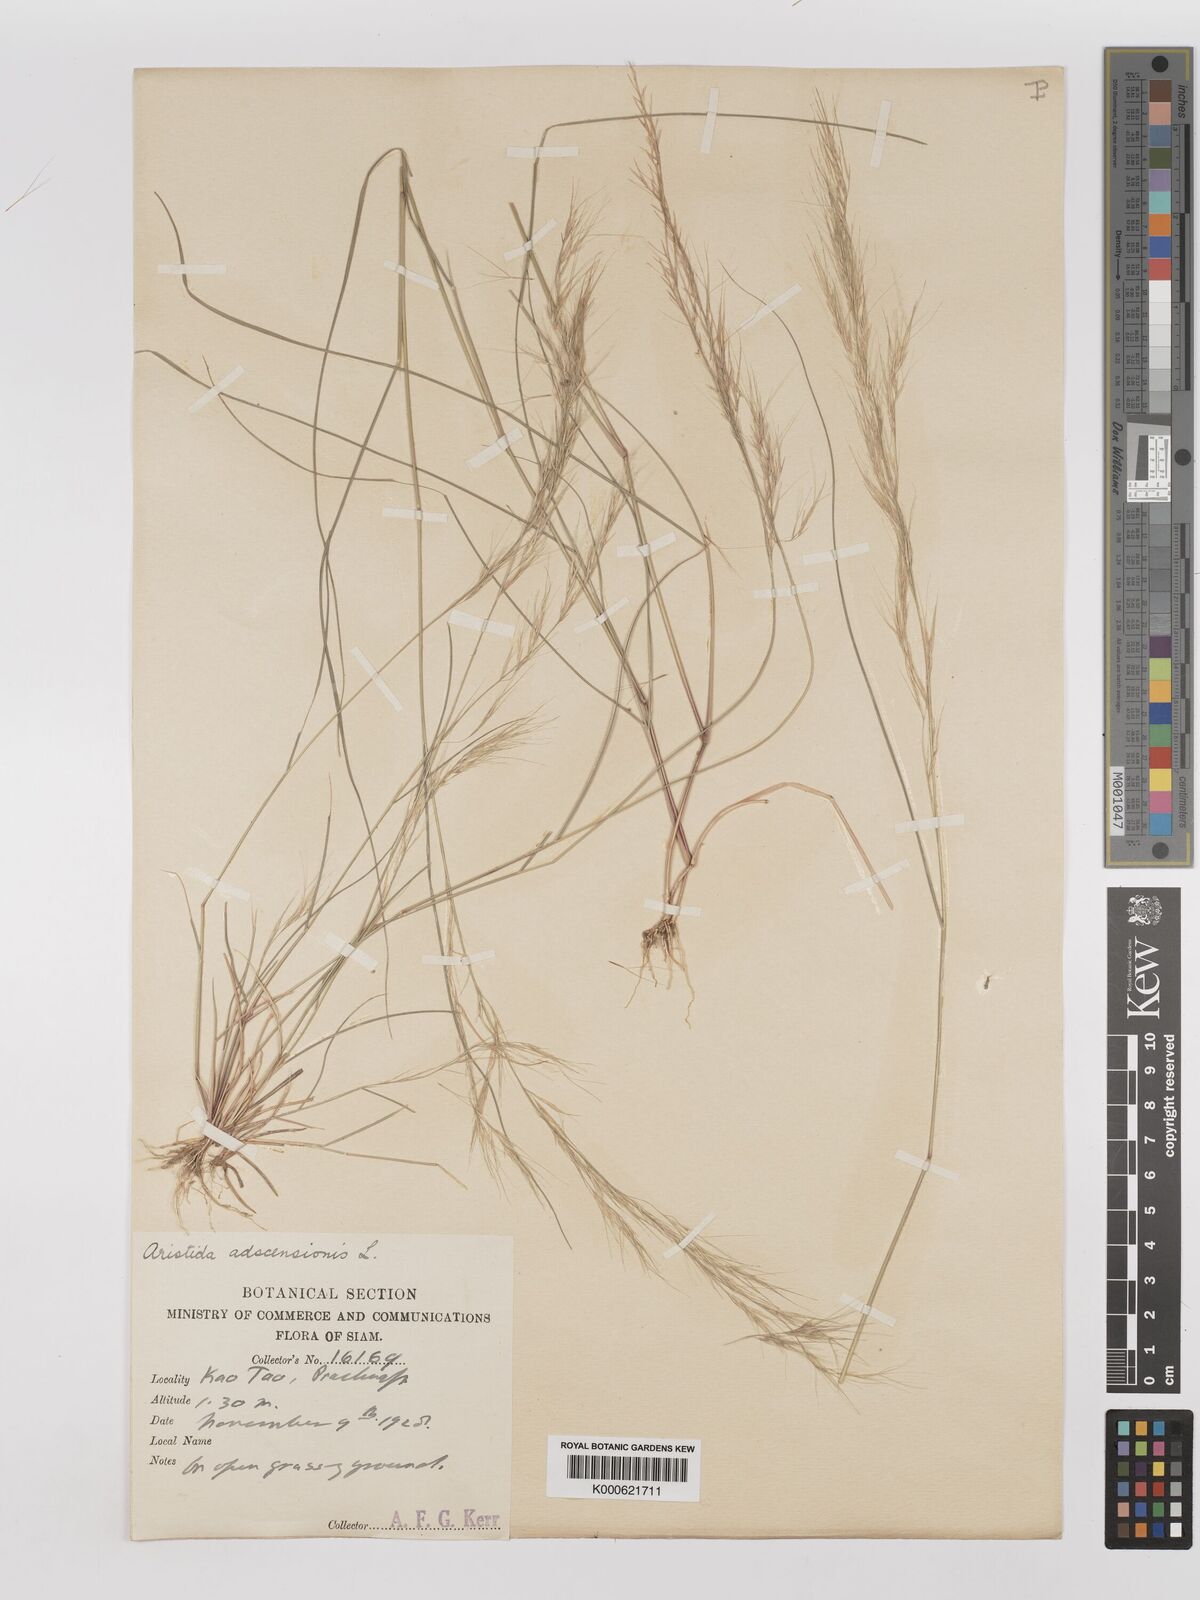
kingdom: Plantae
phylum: Tracheophyta
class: Liliopsida
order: Poales
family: Poaceae
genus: Aristida
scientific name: Aristida adscensionis
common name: Sixweeks threeawn
